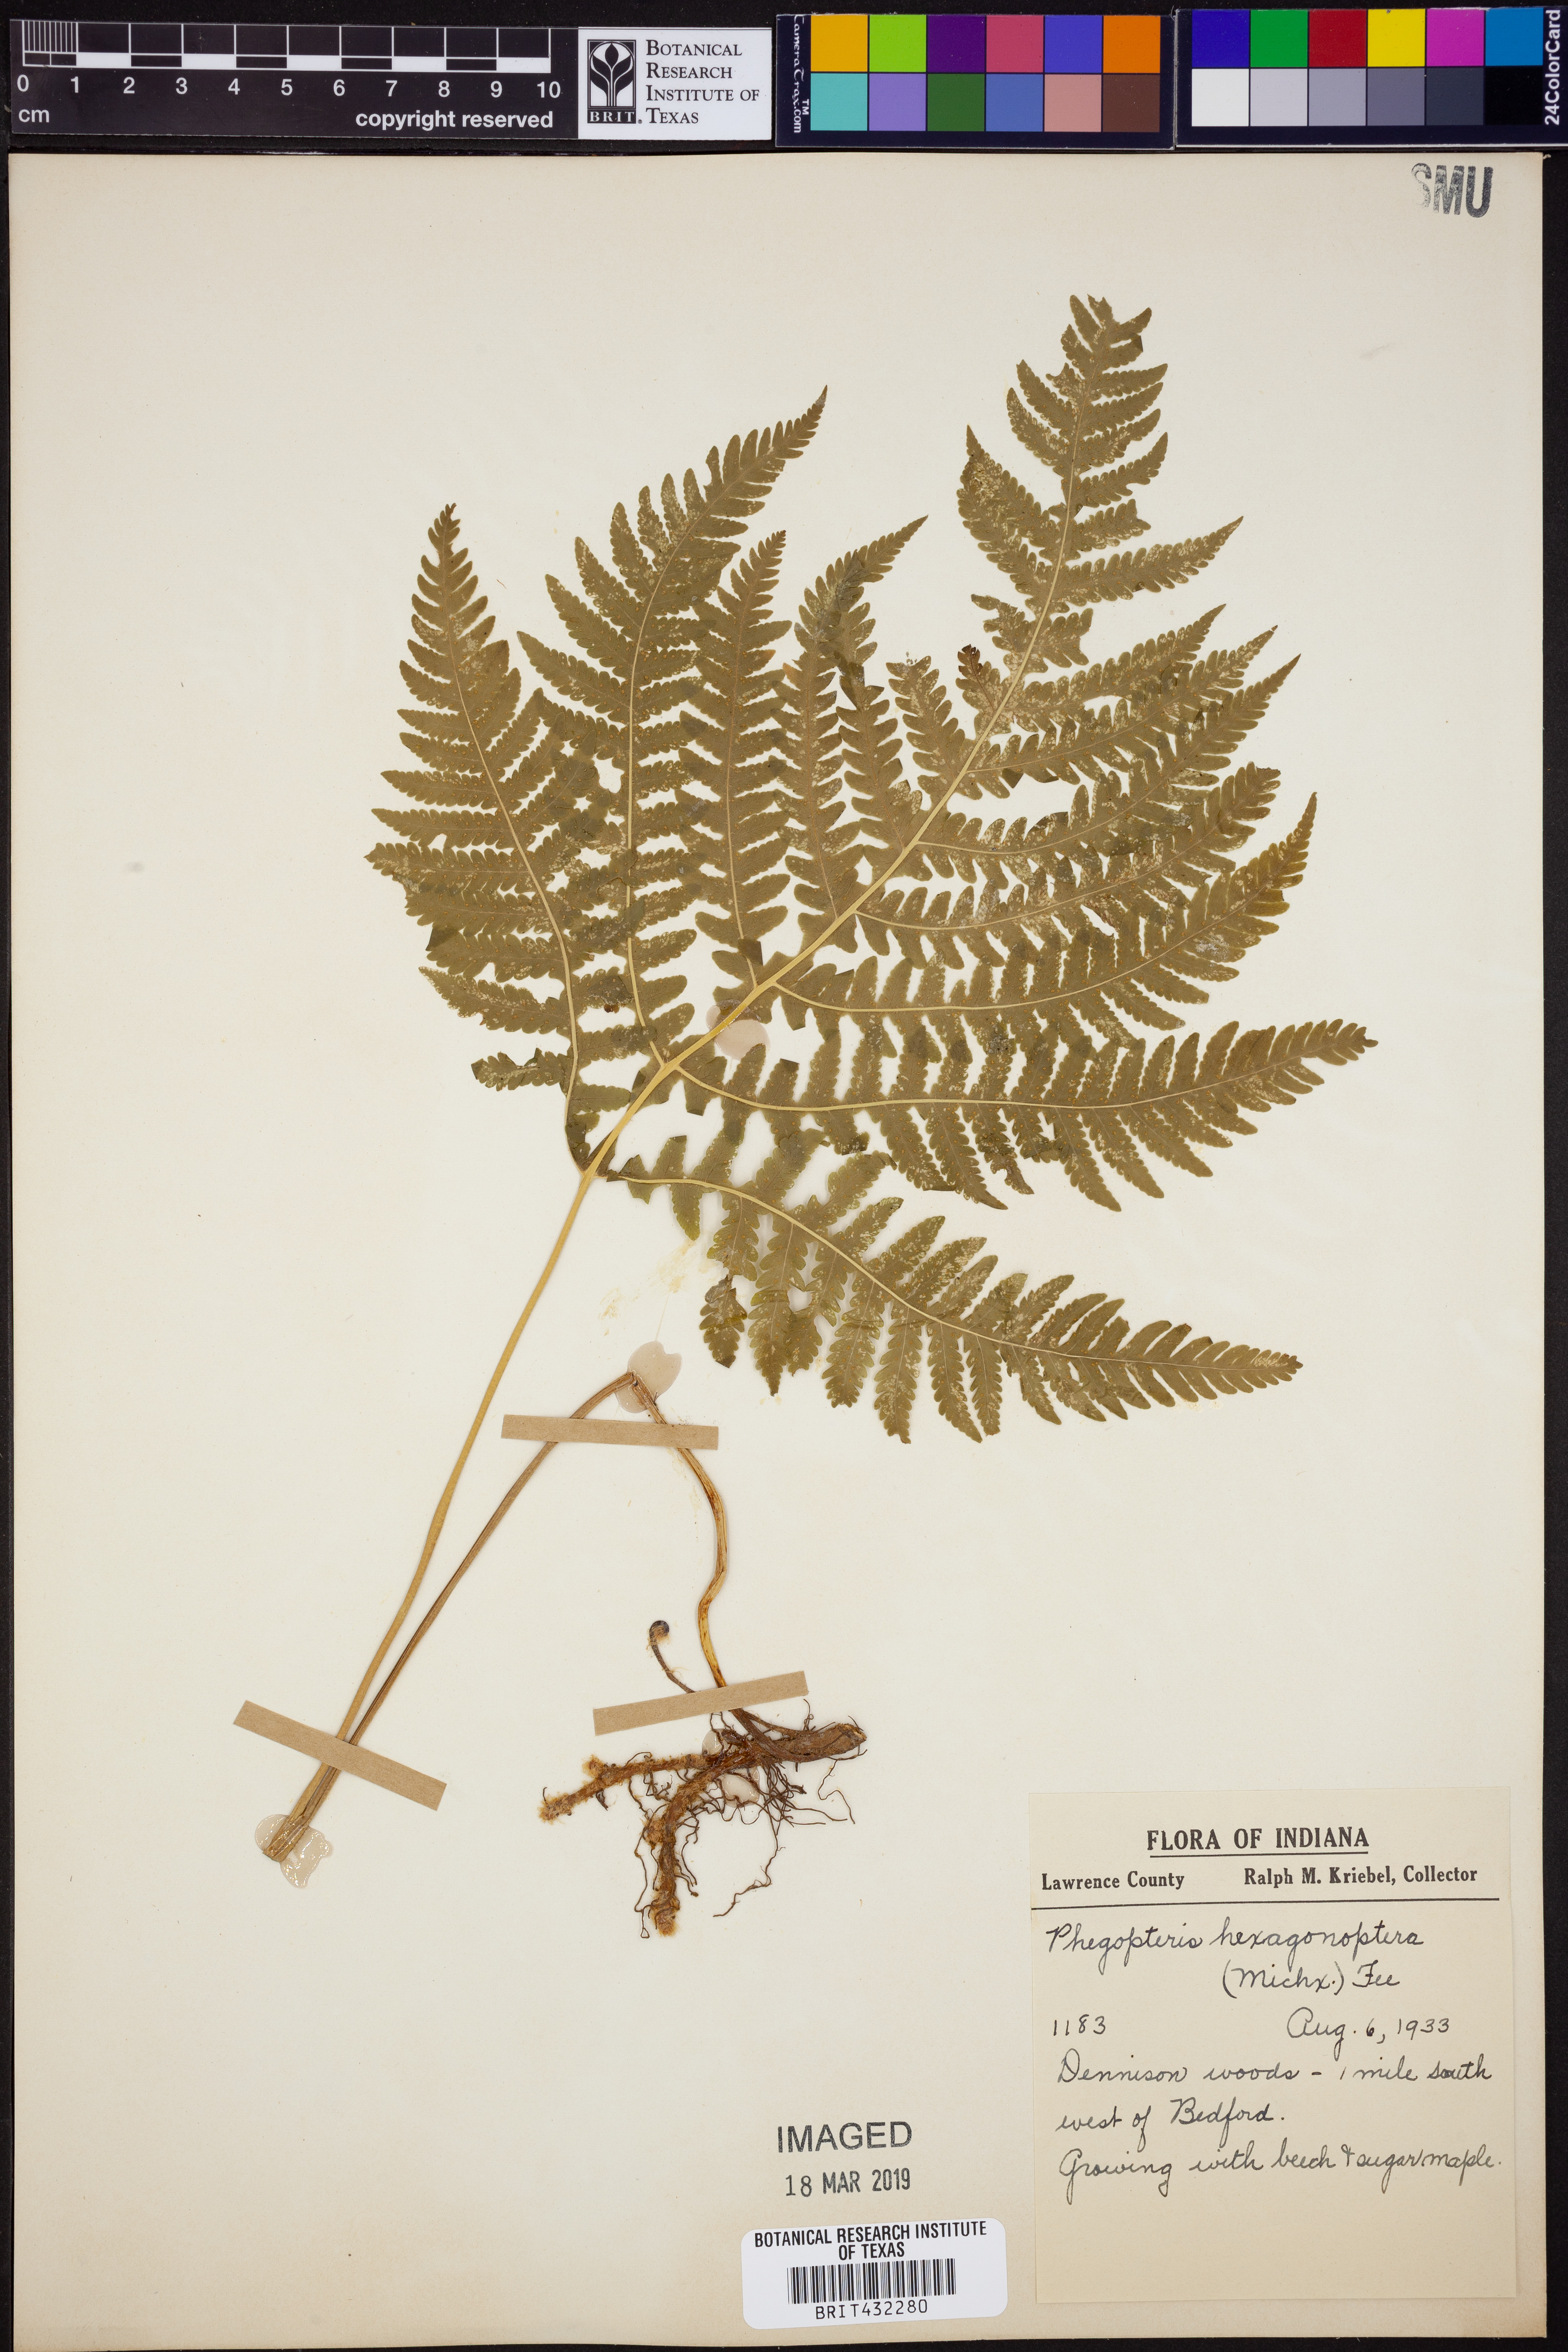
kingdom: Plantae
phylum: Tracheophyta
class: Polypodiopsida
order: Polypodiales
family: Thelypteridaceae
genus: Phegopteris
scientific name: Phegopteris hexagonoptera
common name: Broad beech fern
